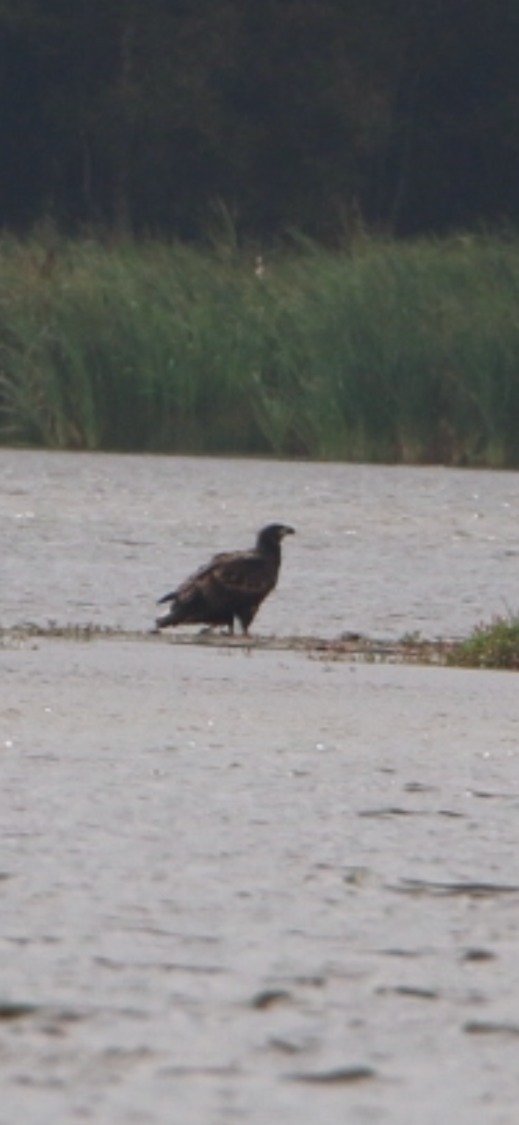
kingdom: Animalia
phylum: Chordata
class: Aves
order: Accipitriformes
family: Accipitridae
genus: Haliaeetus
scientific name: Haliaeetus albicilla
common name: Havørn
